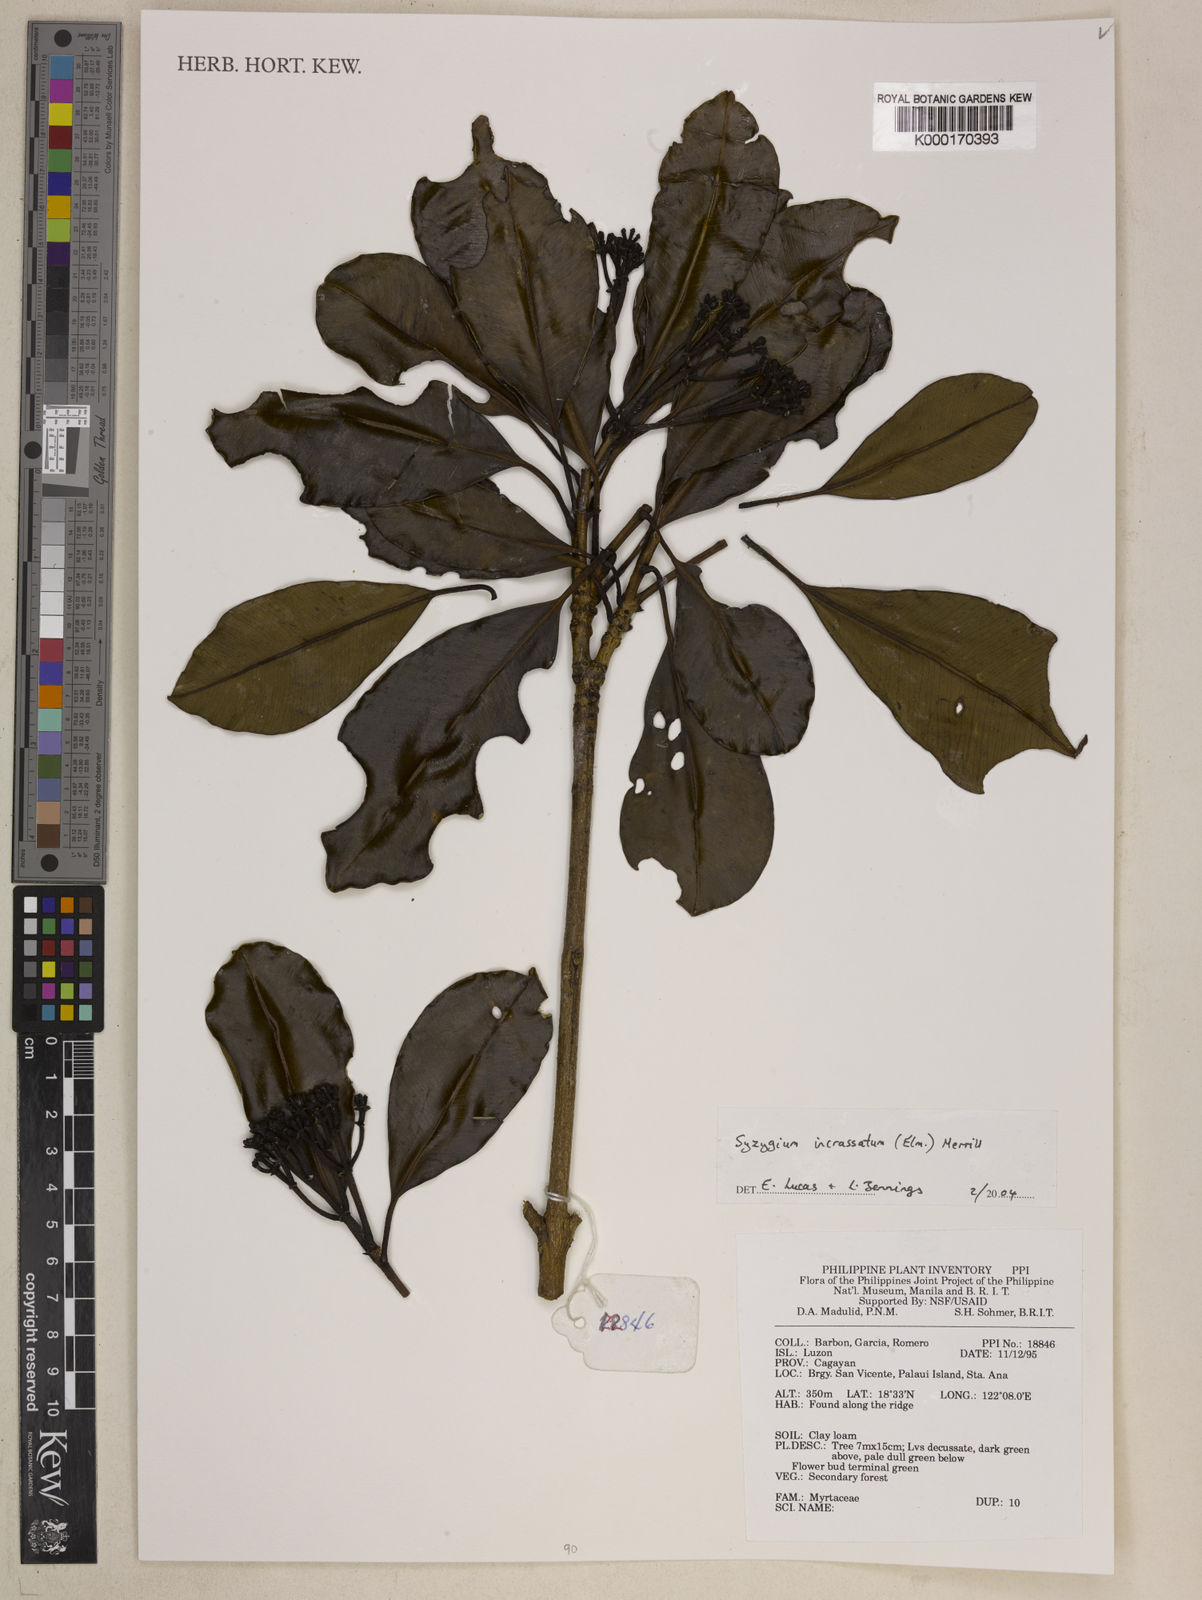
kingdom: Plantae
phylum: Tracheophyta
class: Magnoliopsida
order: Myrtales
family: Myrtaceae
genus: Syzygium
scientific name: Syzygium incrassatum
